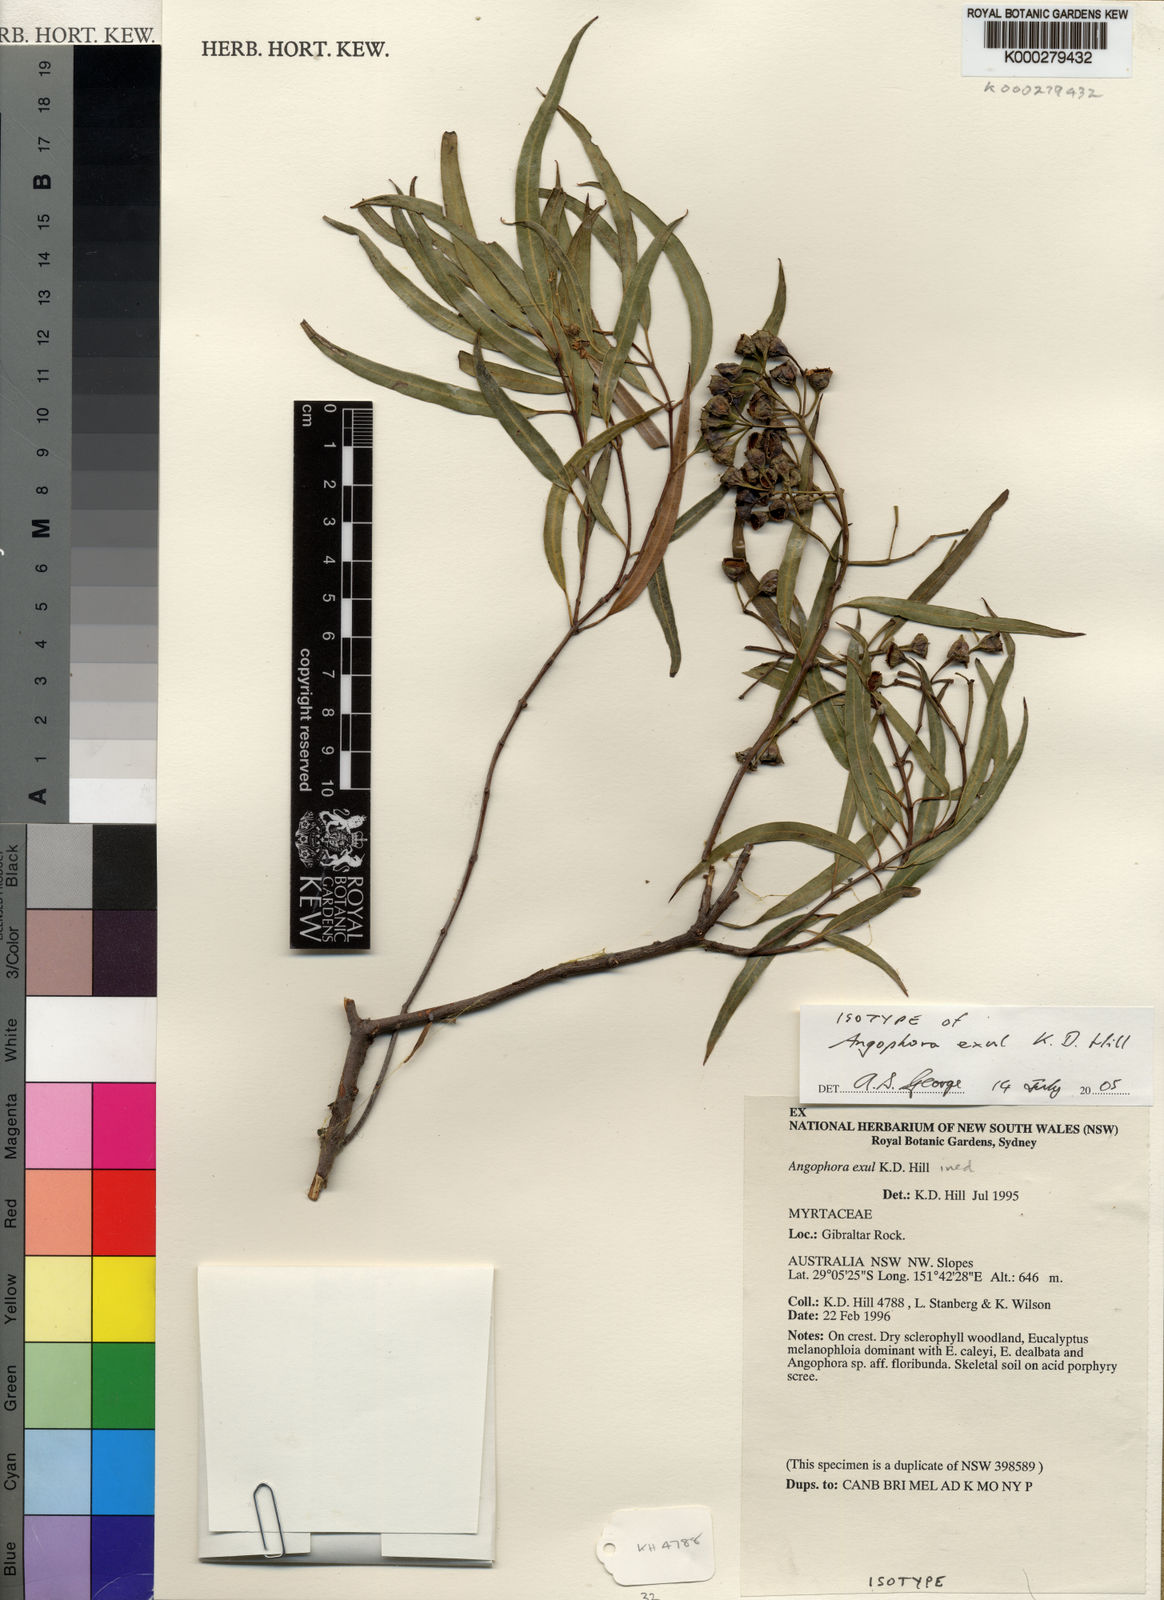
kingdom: Plantae
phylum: Tracheophyta
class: Magnoliopsida
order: Myrtales
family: Myrtaceae
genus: Angophora
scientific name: Angophora exul
